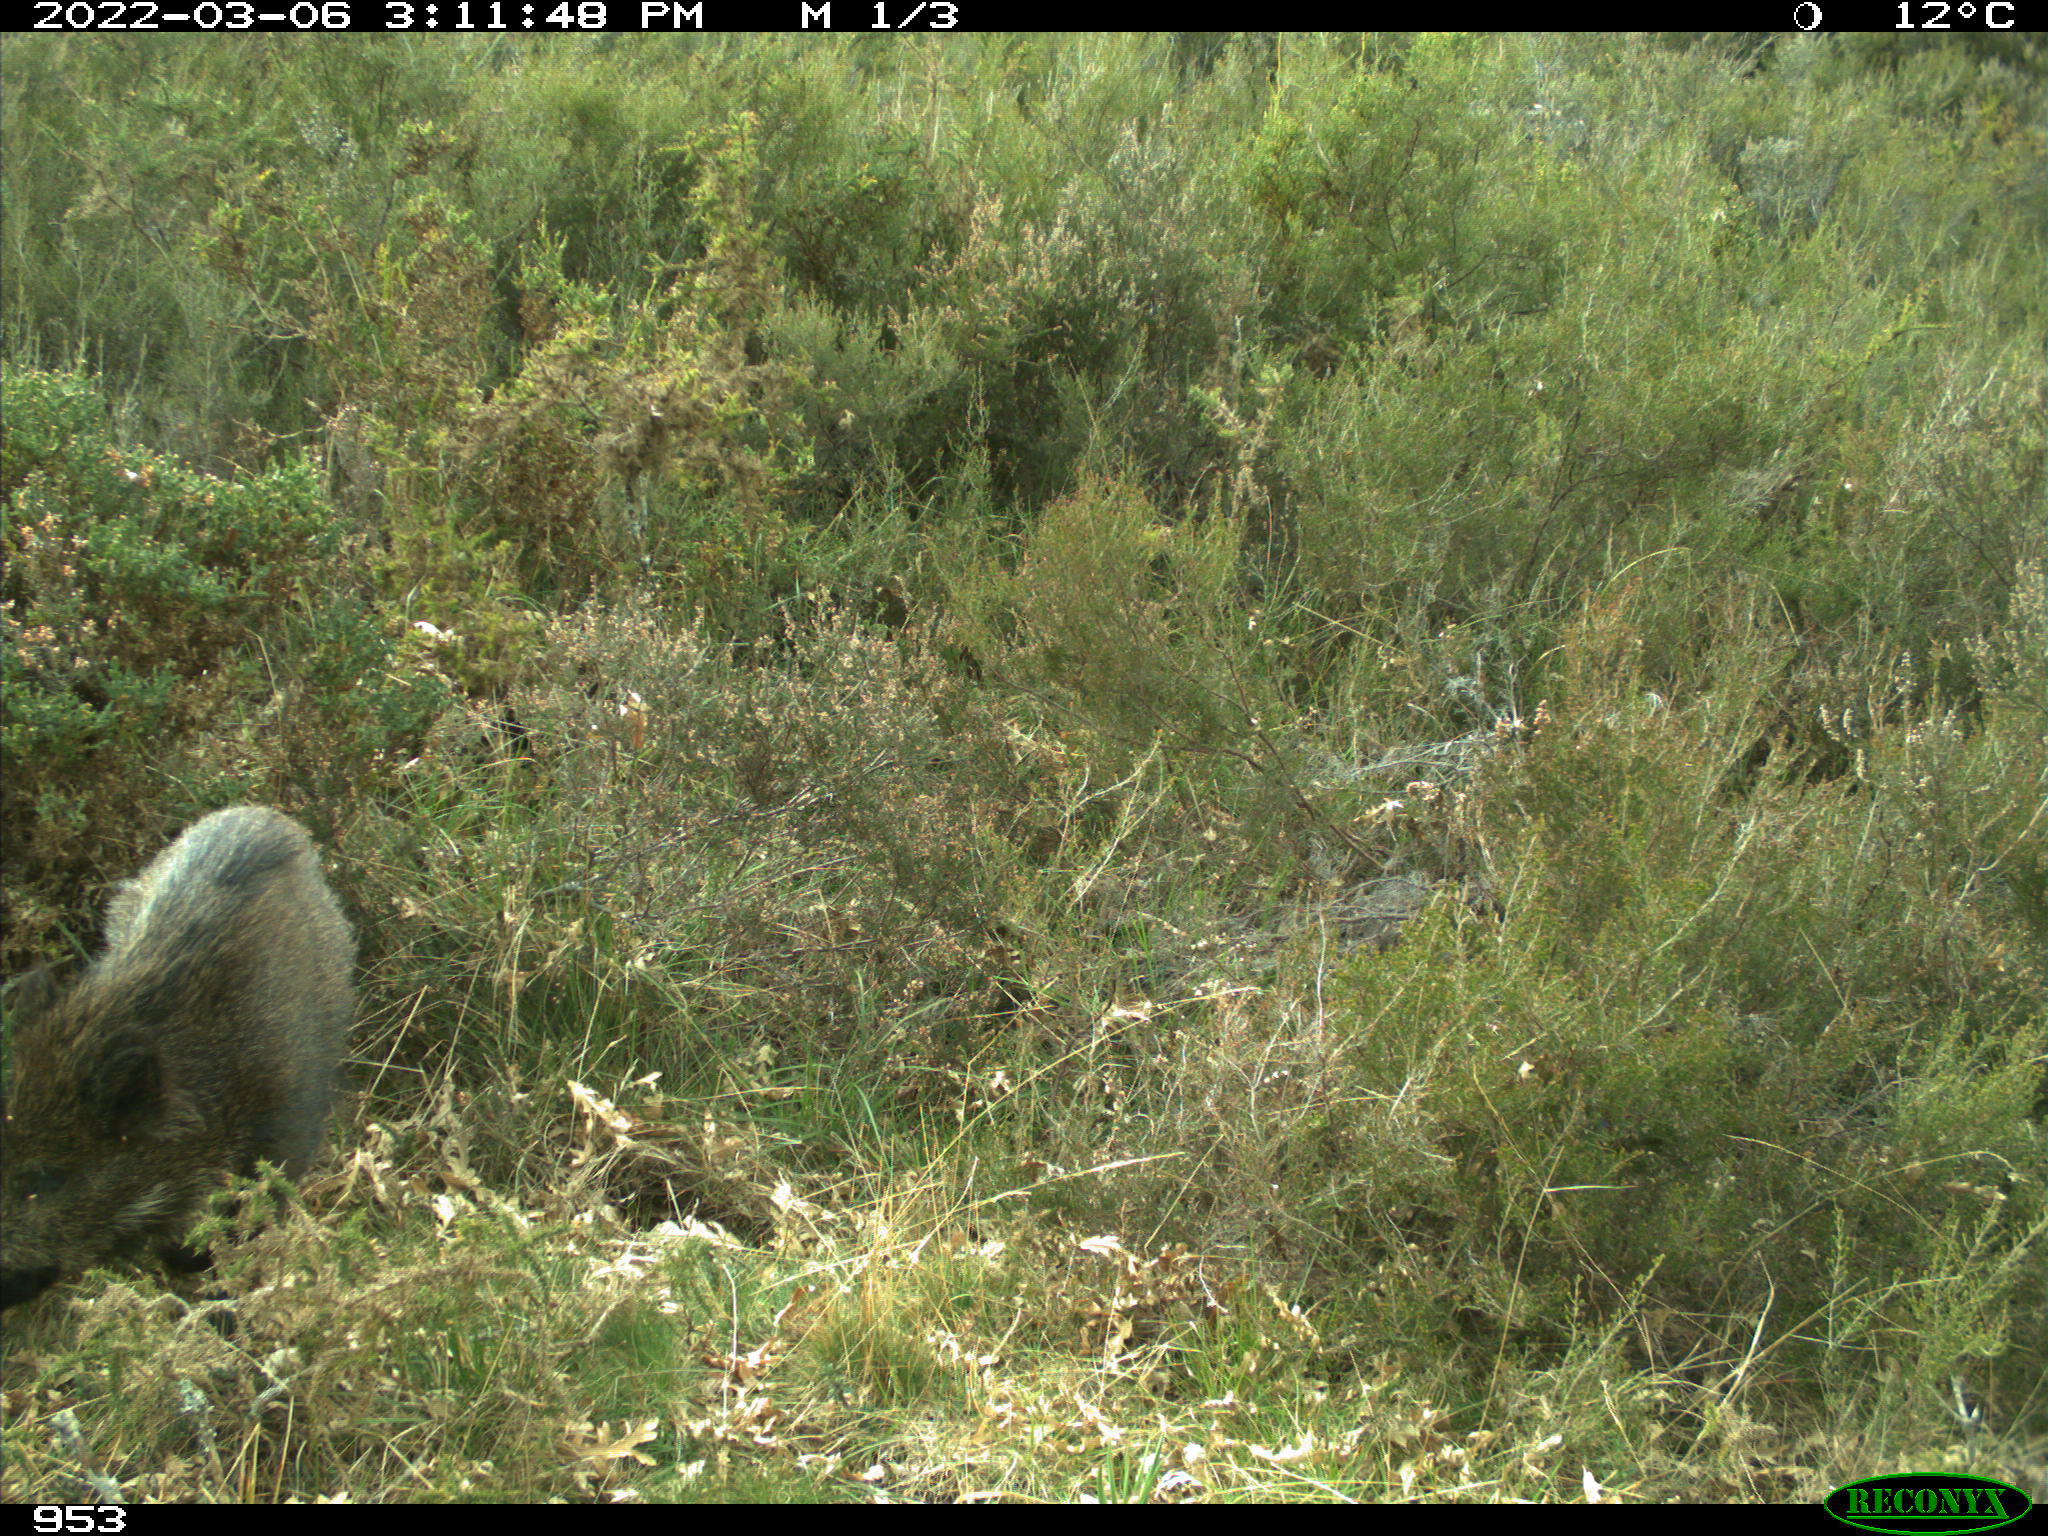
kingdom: Animalia
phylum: Chordata
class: Mammalia
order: Artiodactyla
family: Suidae
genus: Sus
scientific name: Sus scrofa
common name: Wild boar
